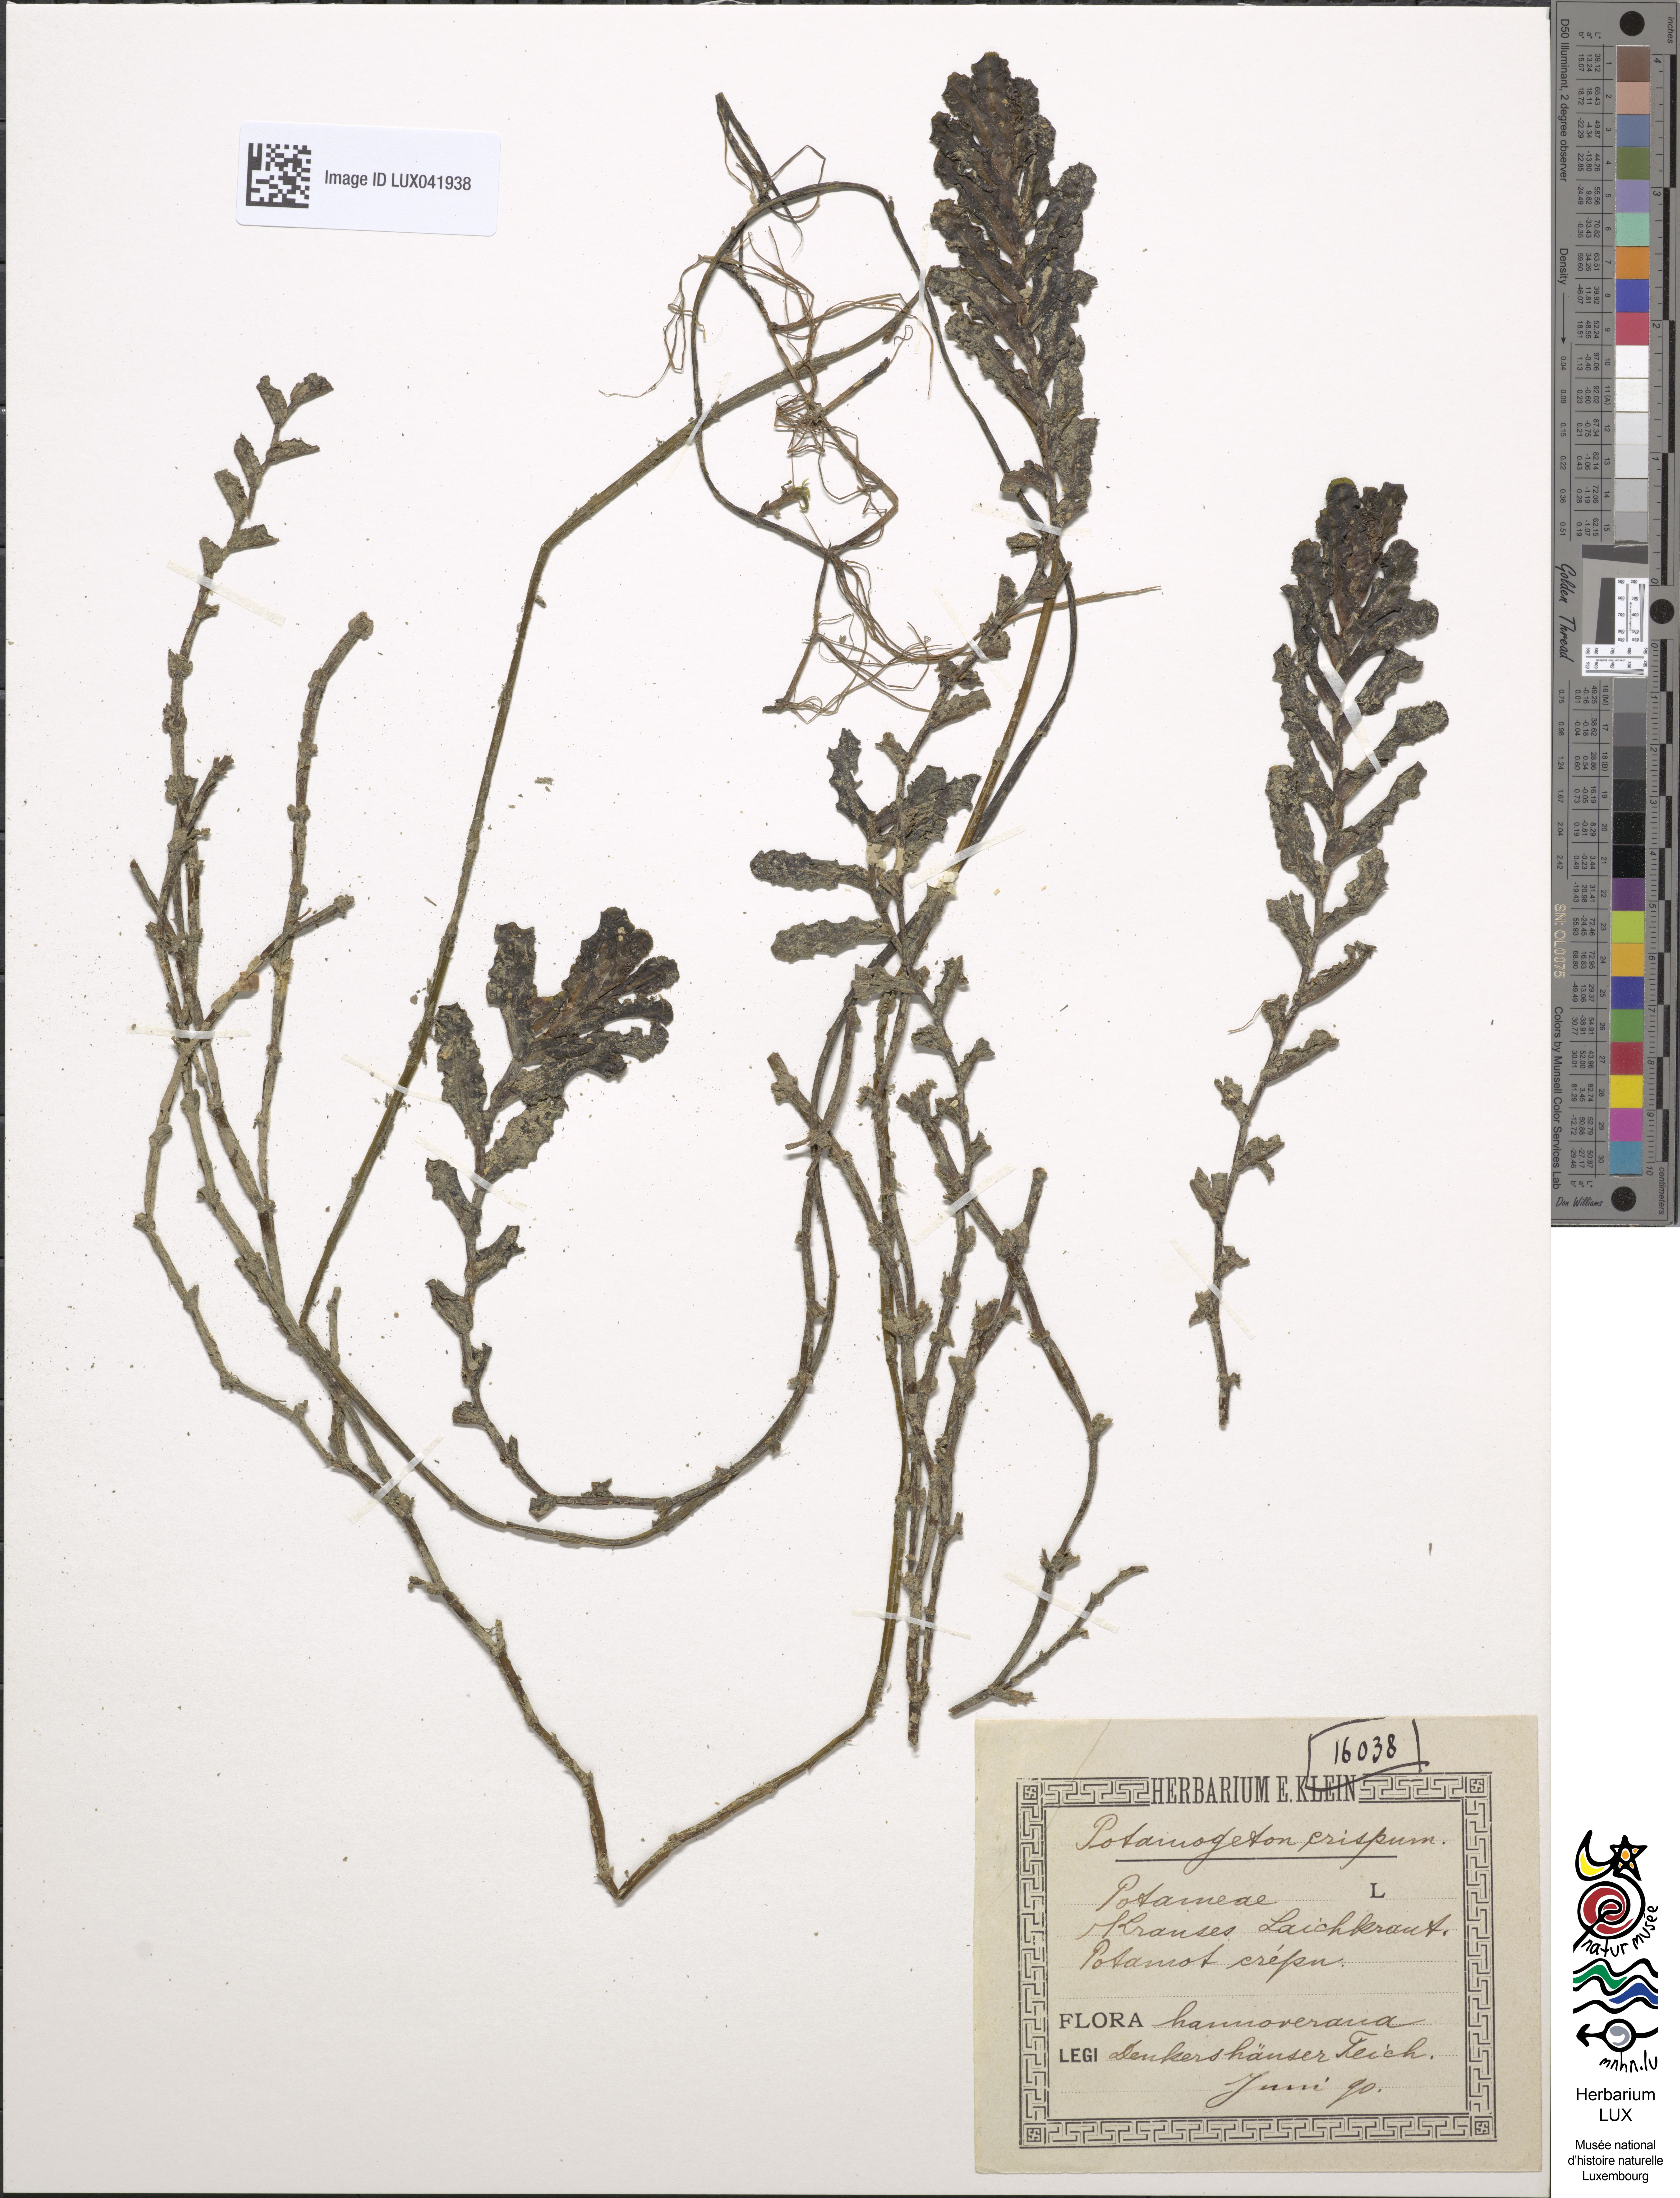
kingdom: Plantae
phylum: Tracheophyta
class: Liliopsida
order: Alismatales
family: Potamogetonaceae
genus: Potamogeton
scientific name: Potamogeton crispus
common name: Curled pondweed
